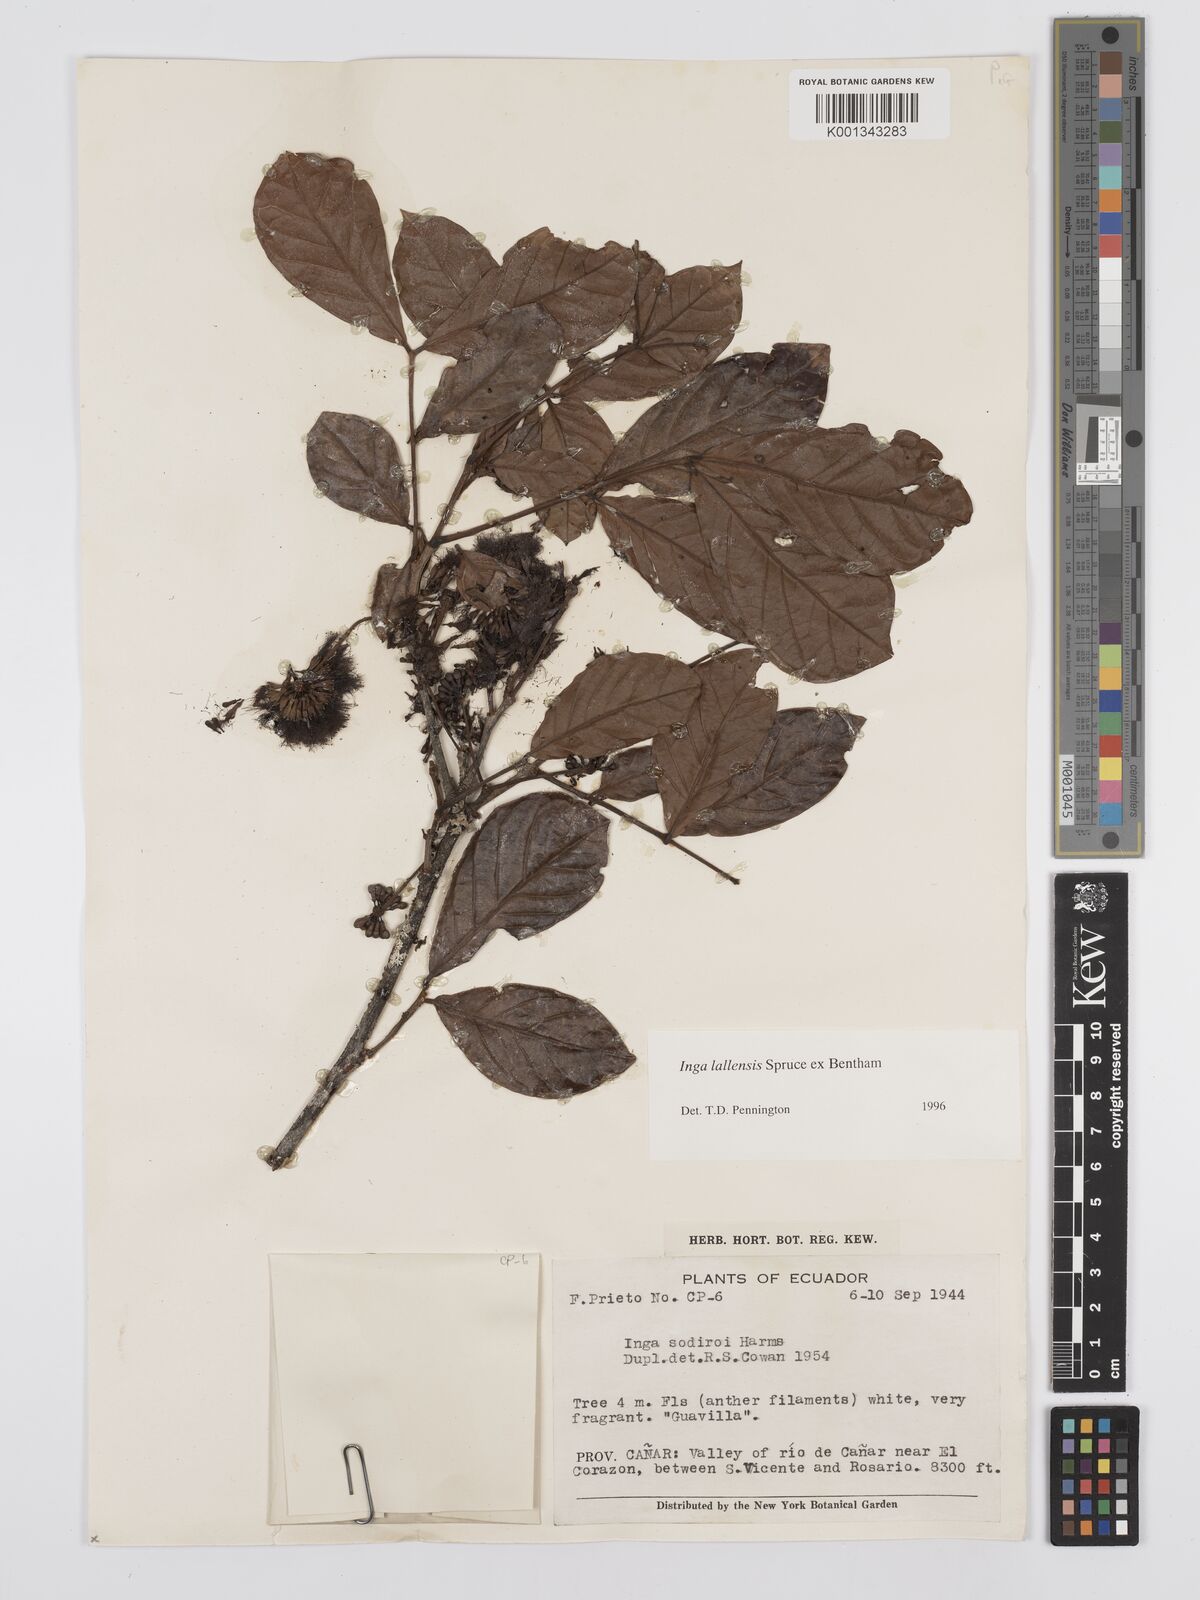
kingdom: Plantae
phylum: Tracheophyta
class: Magnoliopsida
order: Fabales
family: Fabaceae
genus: Inga
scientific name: Inga lallensis
